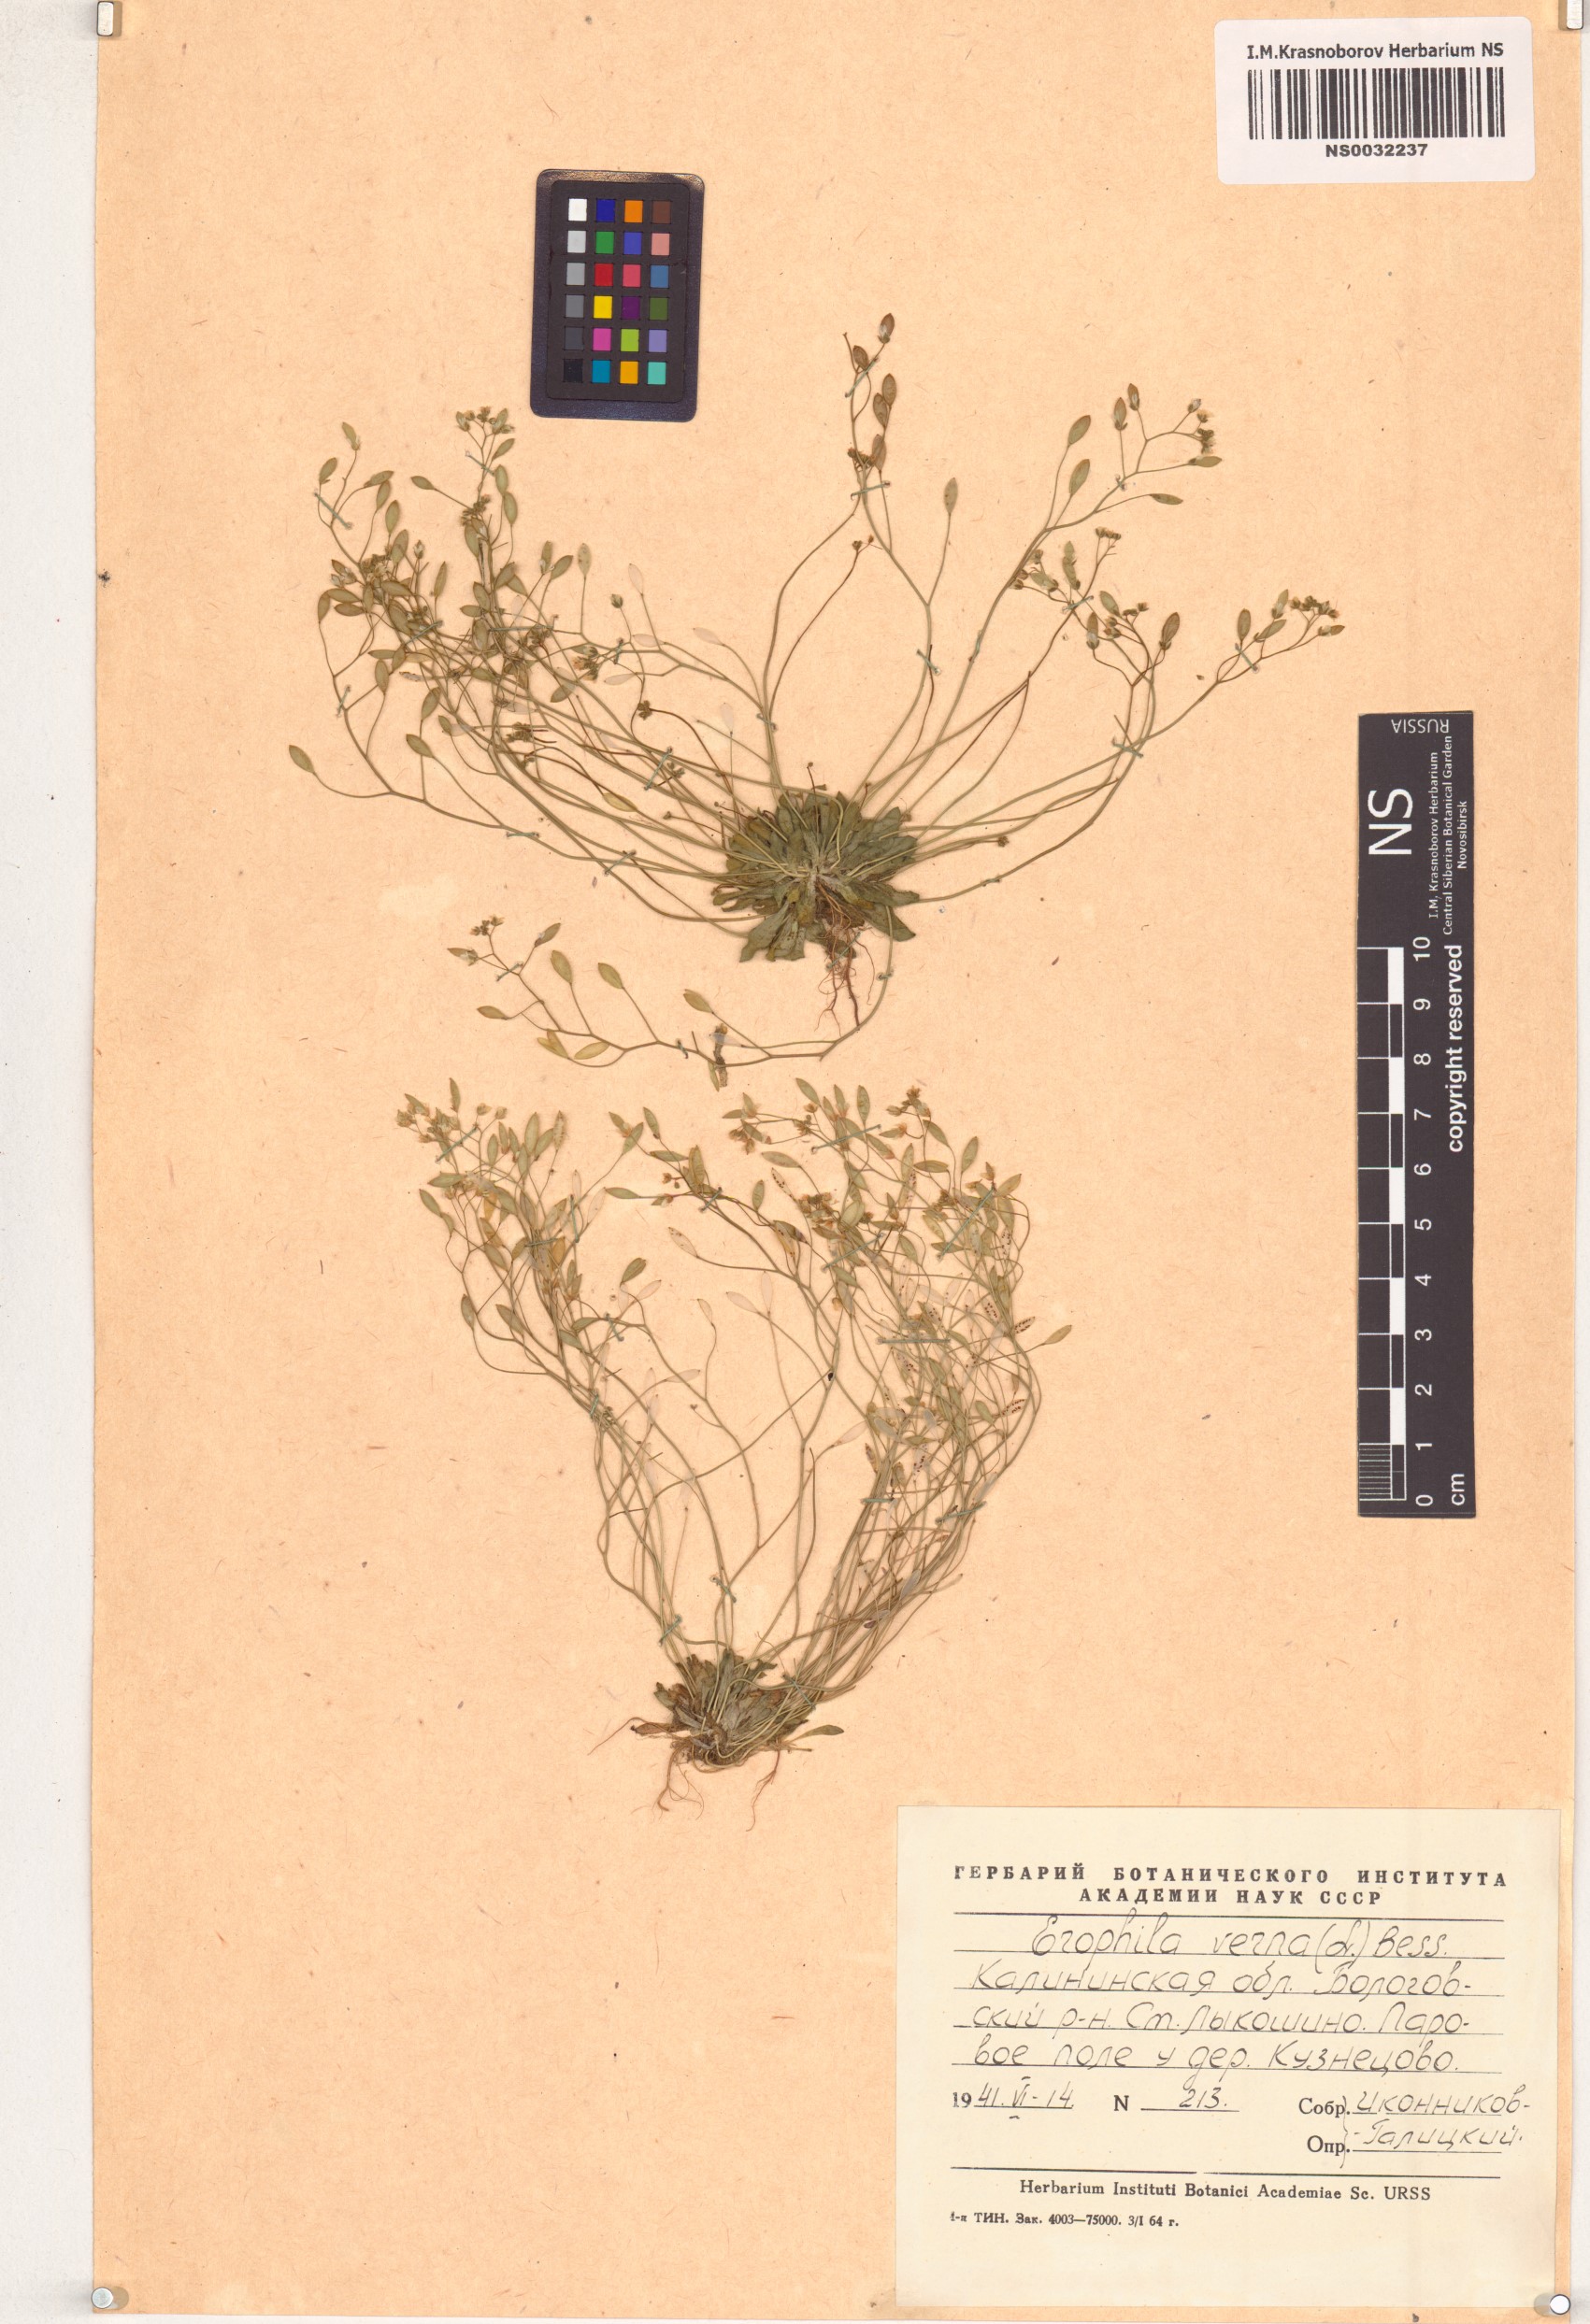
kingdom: Plantae
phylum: Tracheophyta
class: Magnoliopsida
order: Brassicales
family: Brassicaceae
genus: Draba
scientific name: Draba verna
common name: Spring draba
